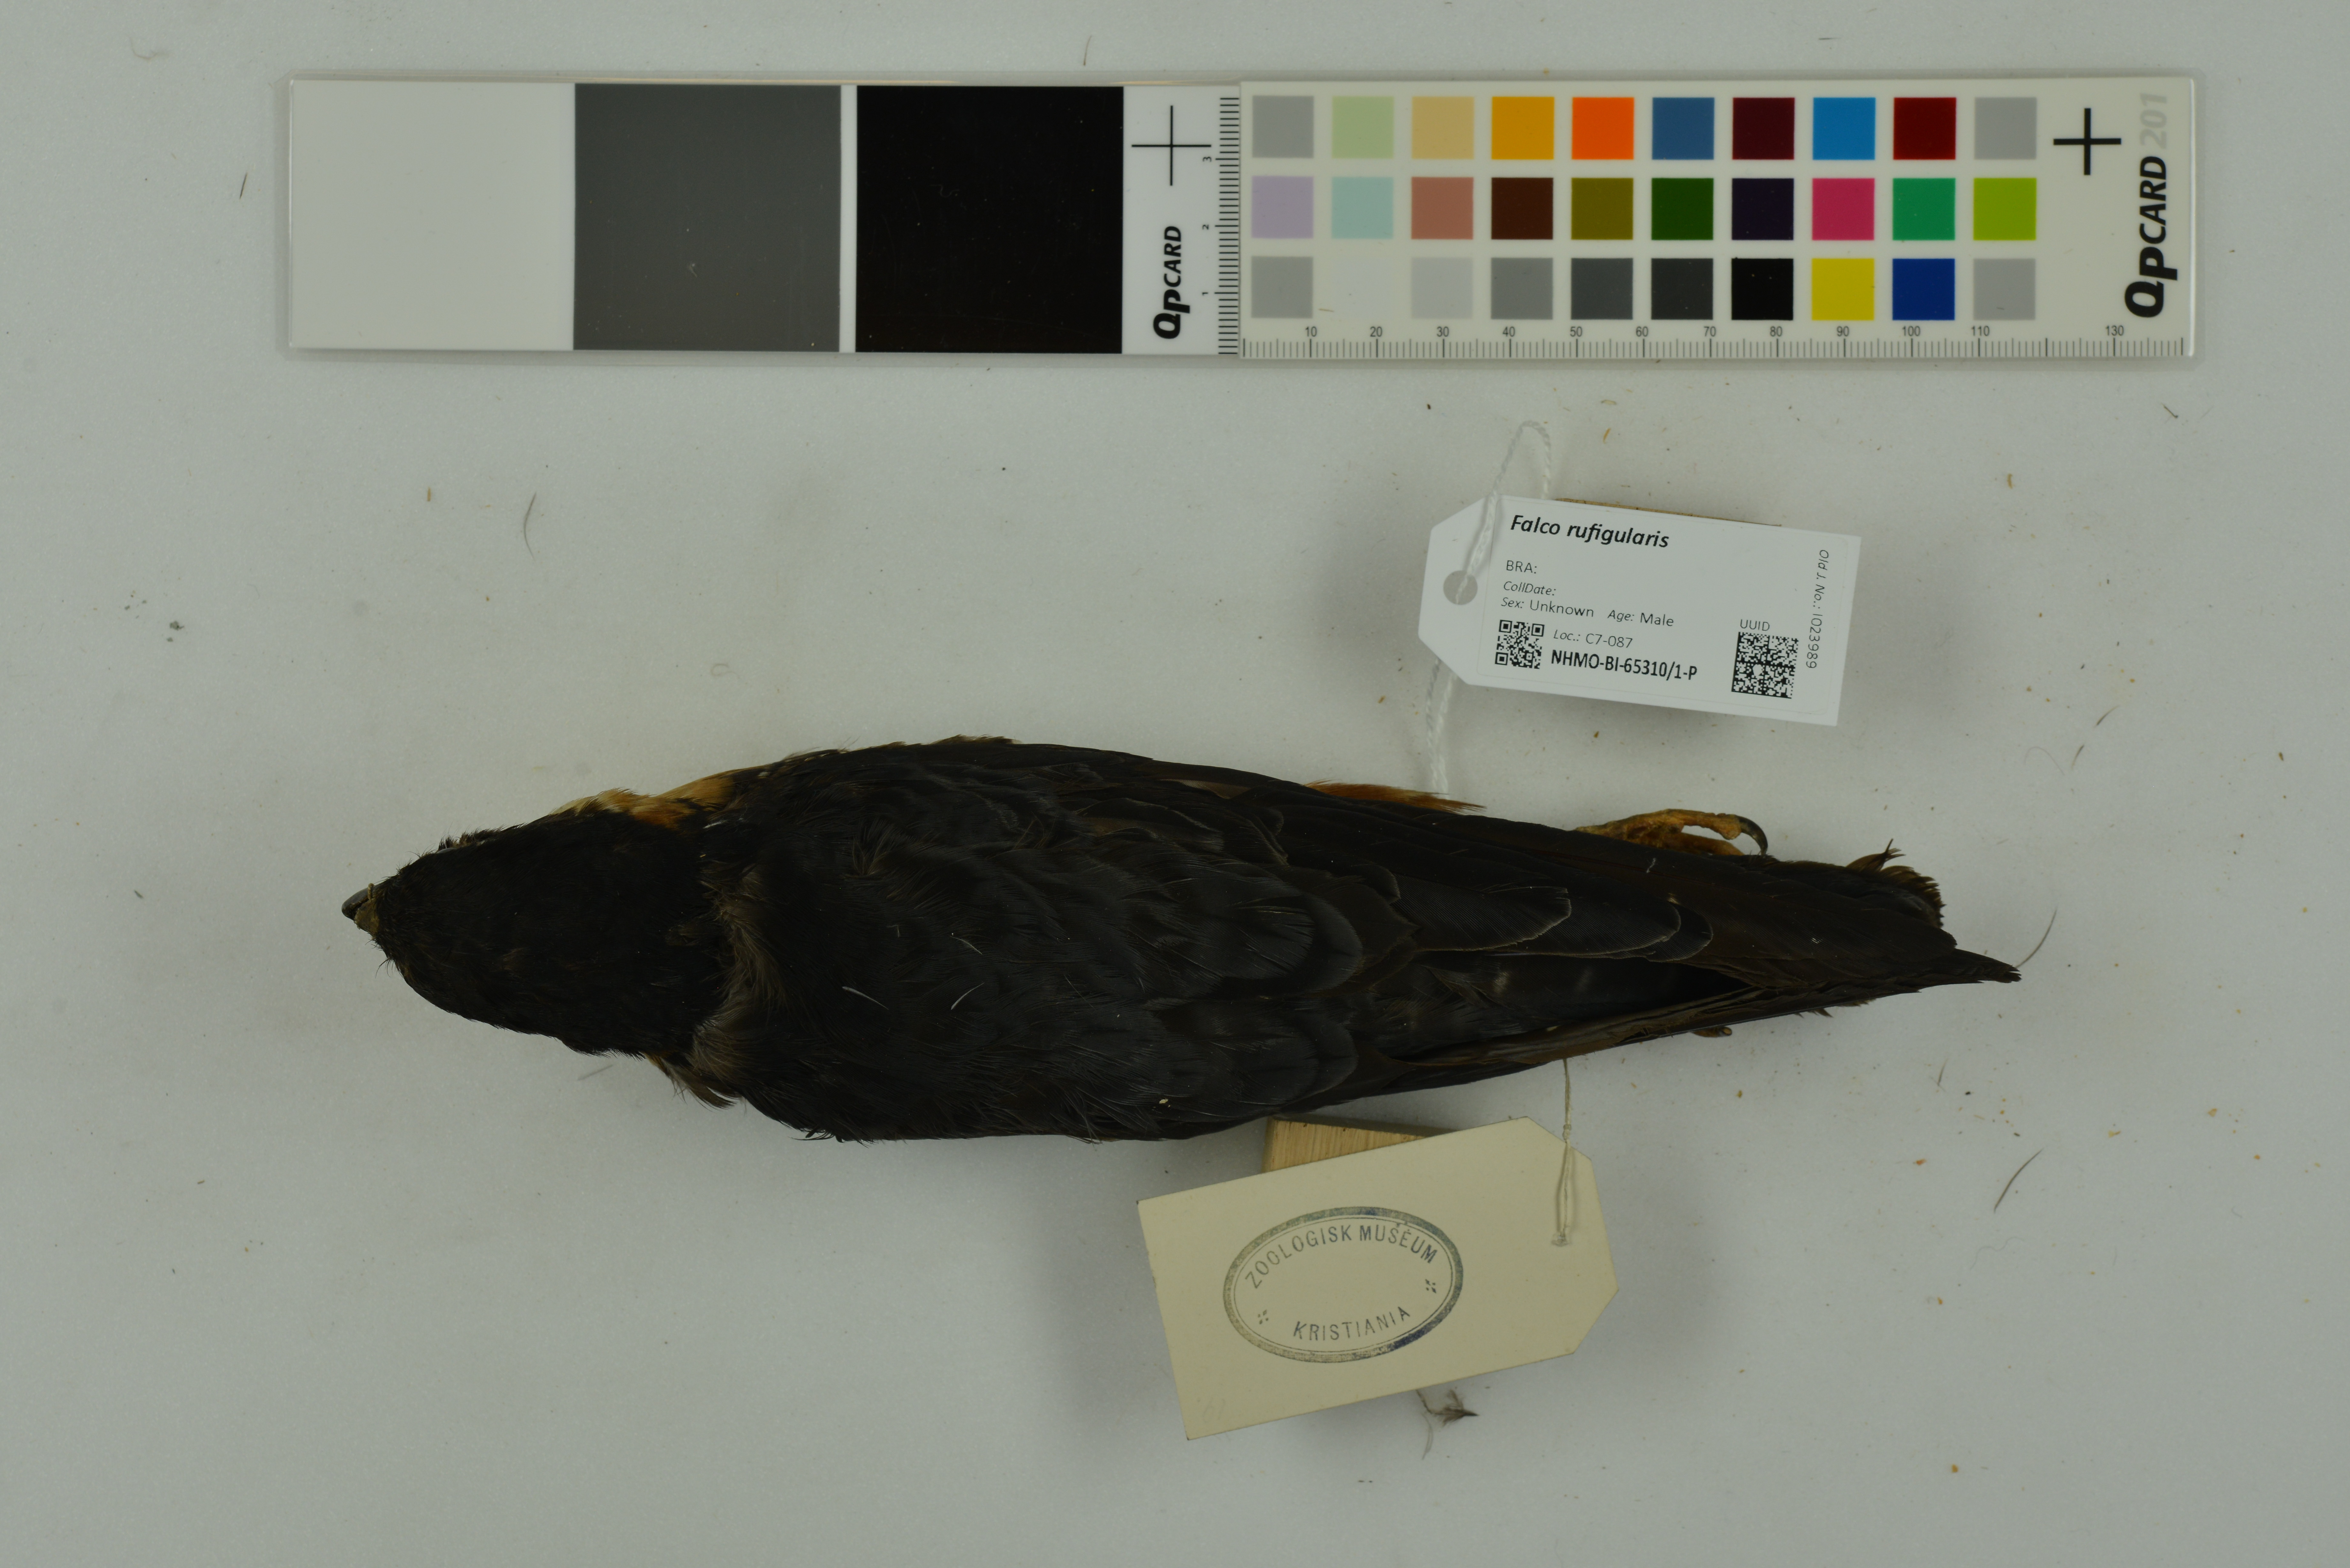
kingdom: Animalia
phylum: Chordata
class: Aves
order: Falconiformes
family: Falconidae
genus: Falco
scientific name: Falco rufigularis
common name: Bat falcon
